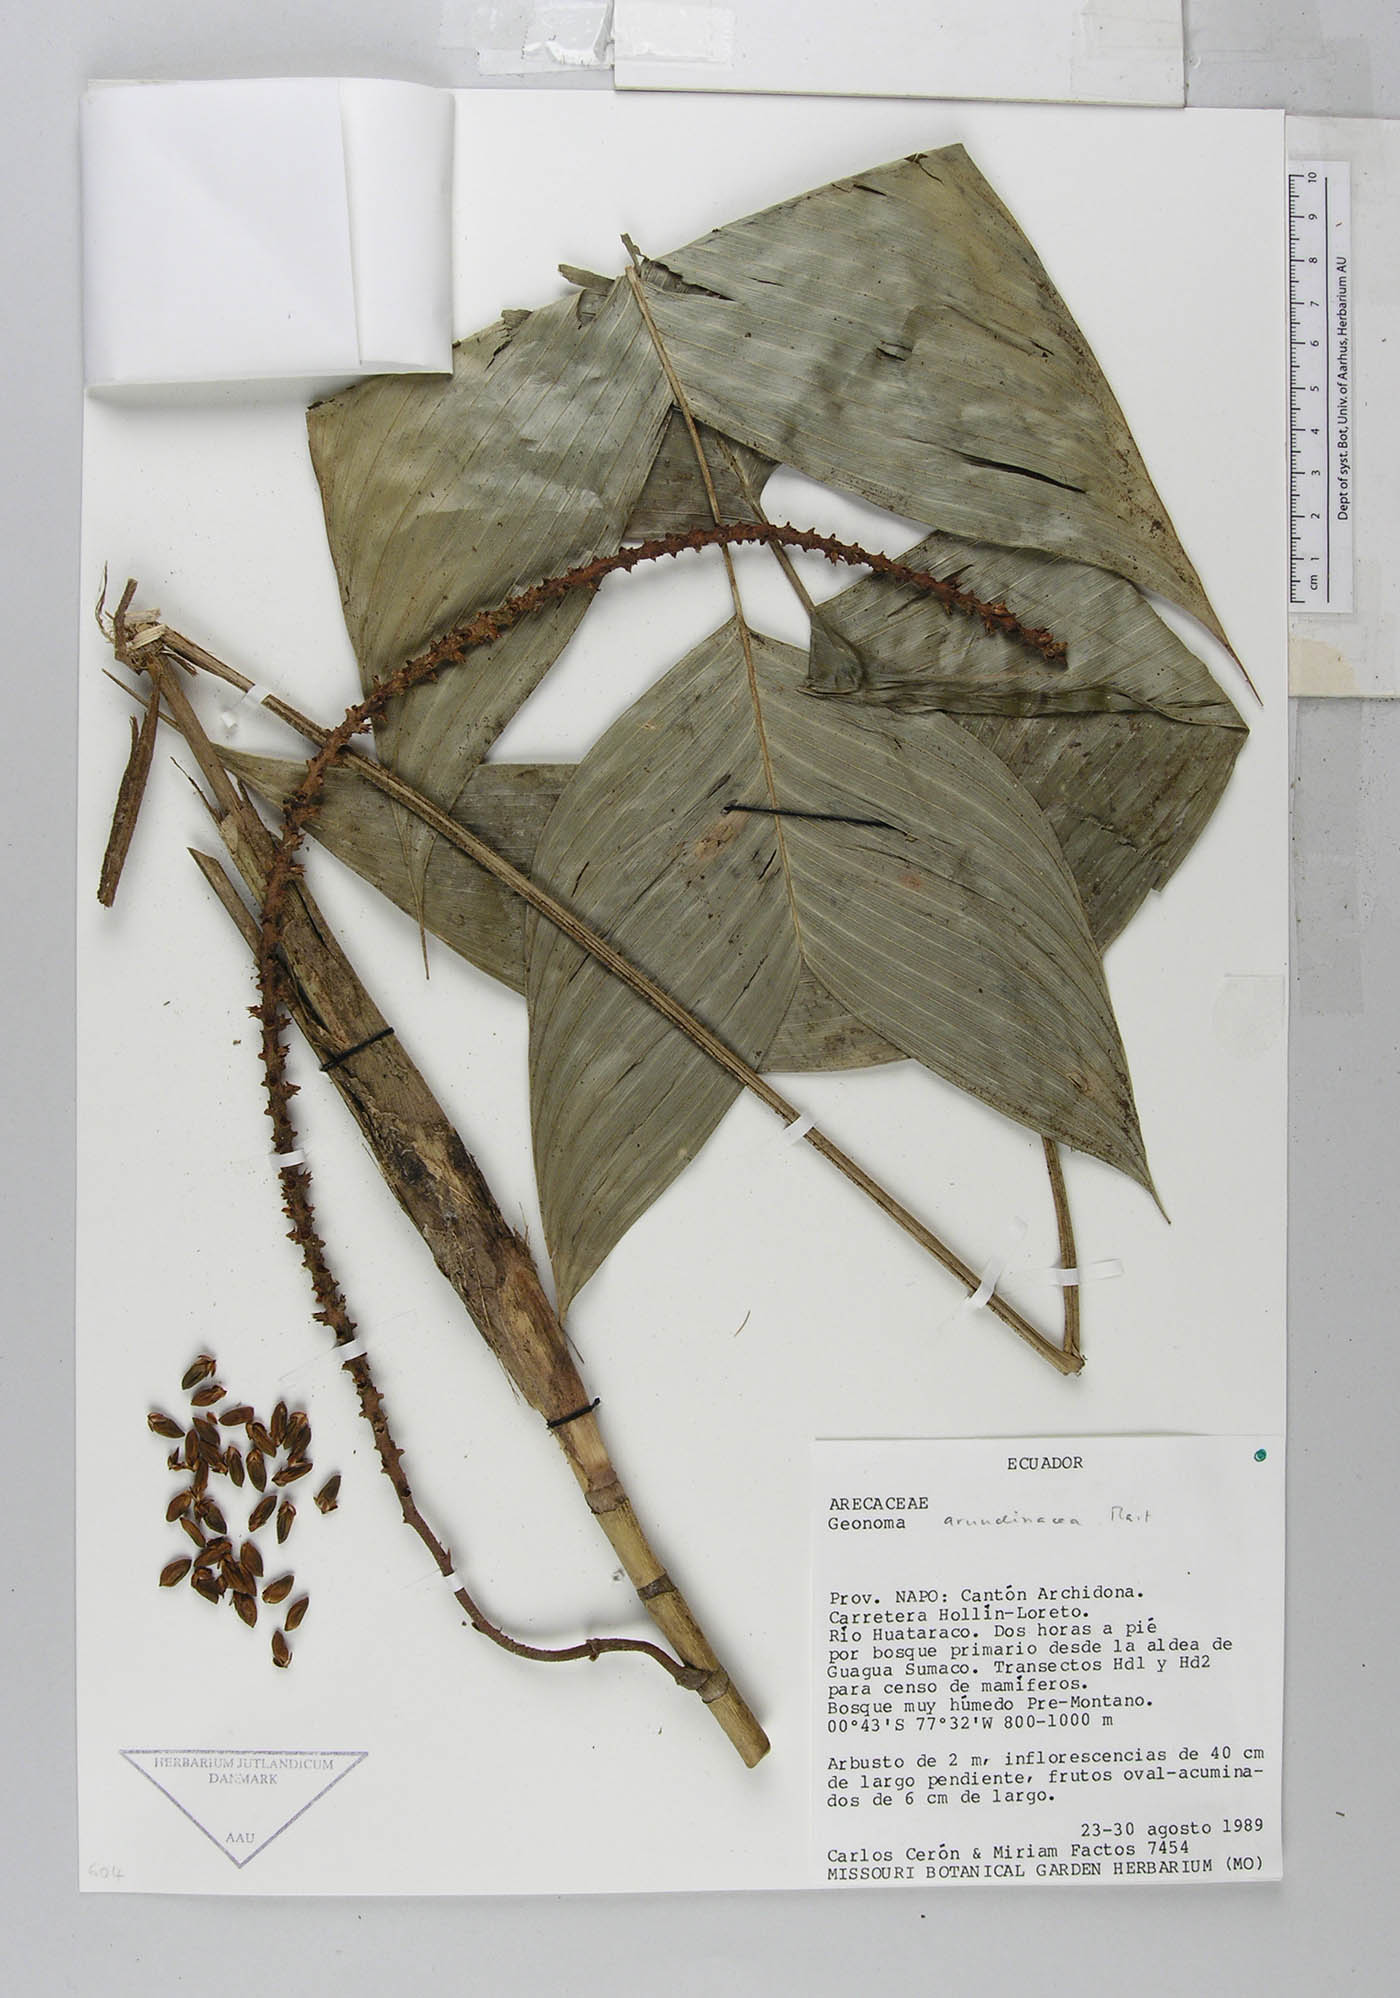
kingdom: Plantae
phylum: Tracheophyta
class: Liliopsida
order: Arecales
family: Arecaceae
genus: Geonoma
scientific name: Geonoma stricta
